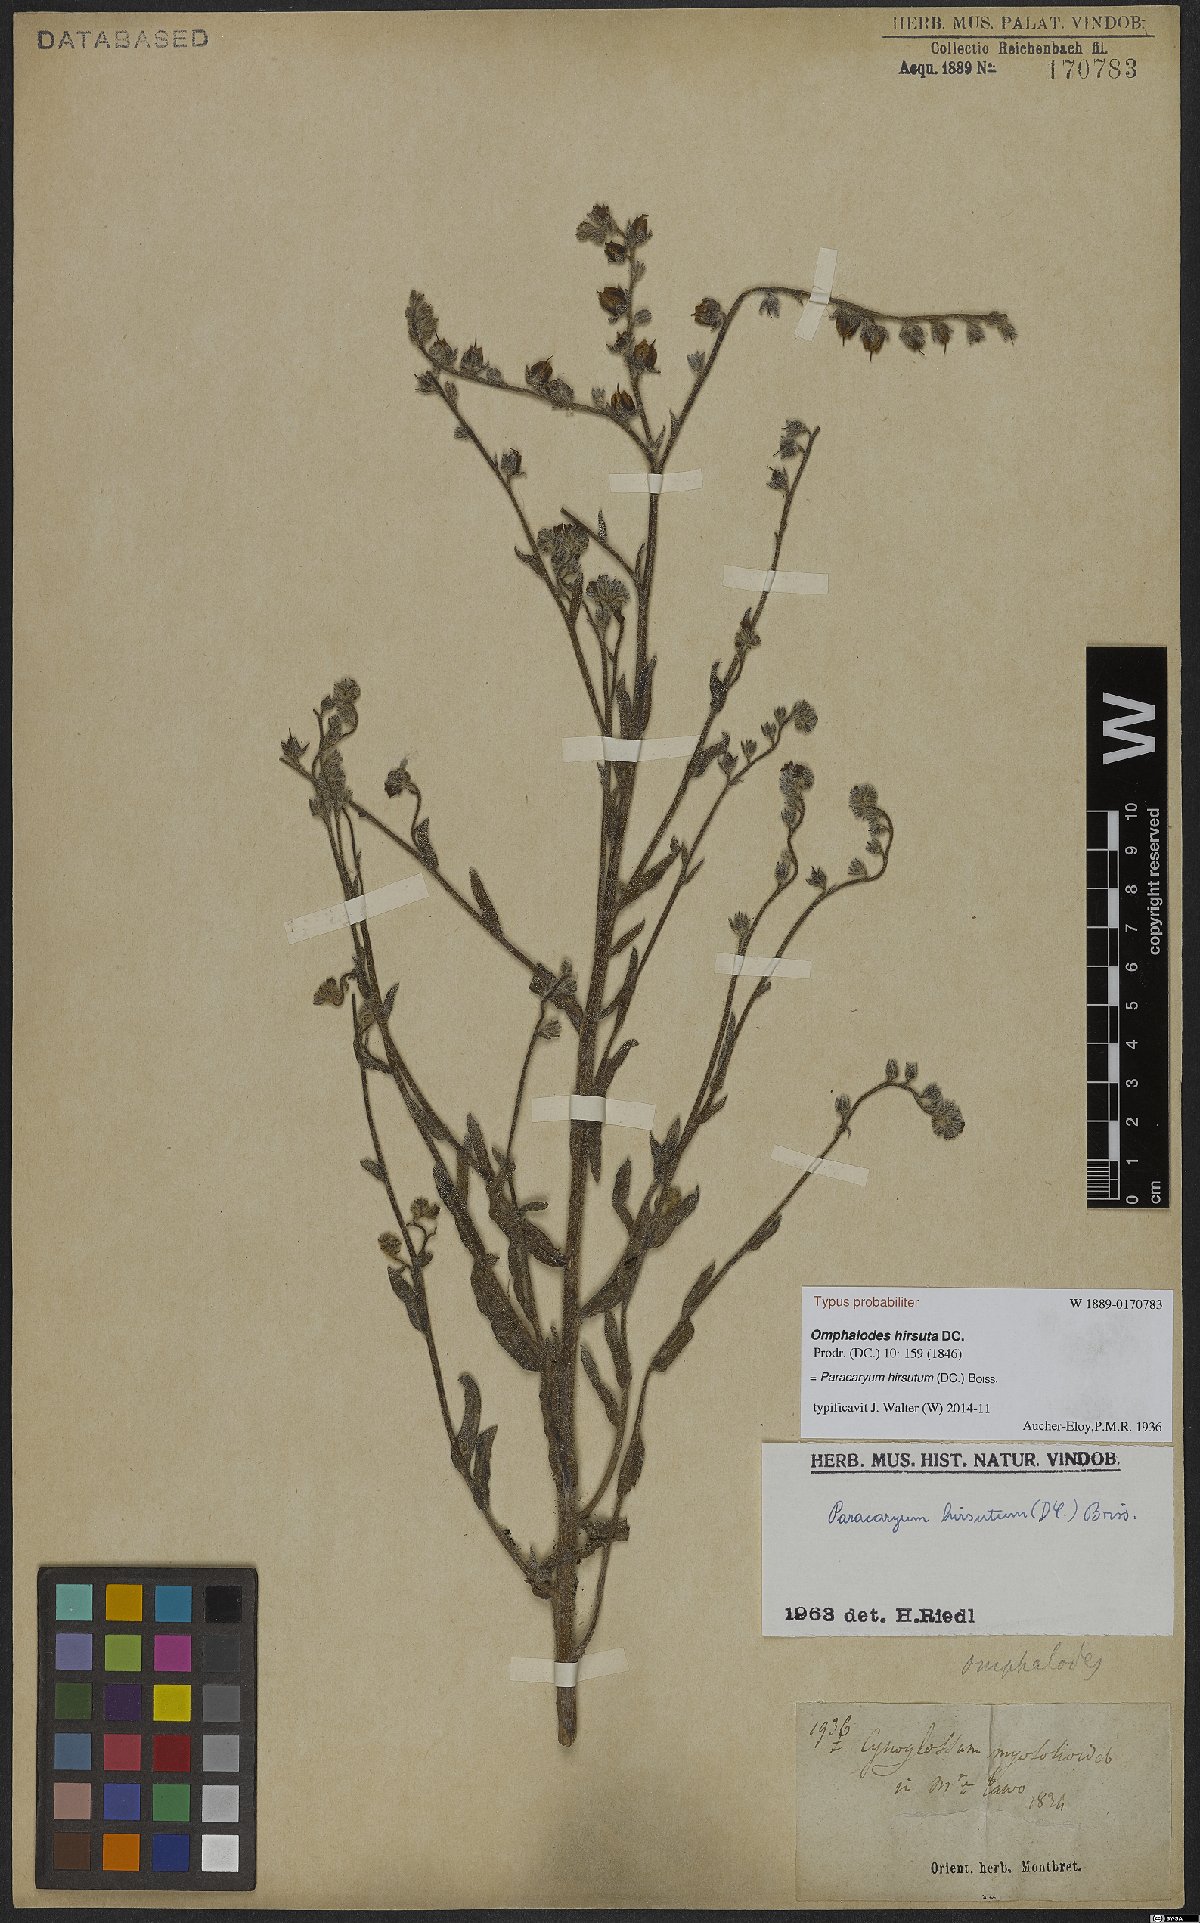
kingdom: Plantae
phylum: Tracheophyta
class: Magnoliopsida
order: Boraginales
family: Boraginaceae
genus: Paracaryum
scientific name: Paracaryum hirsutum
